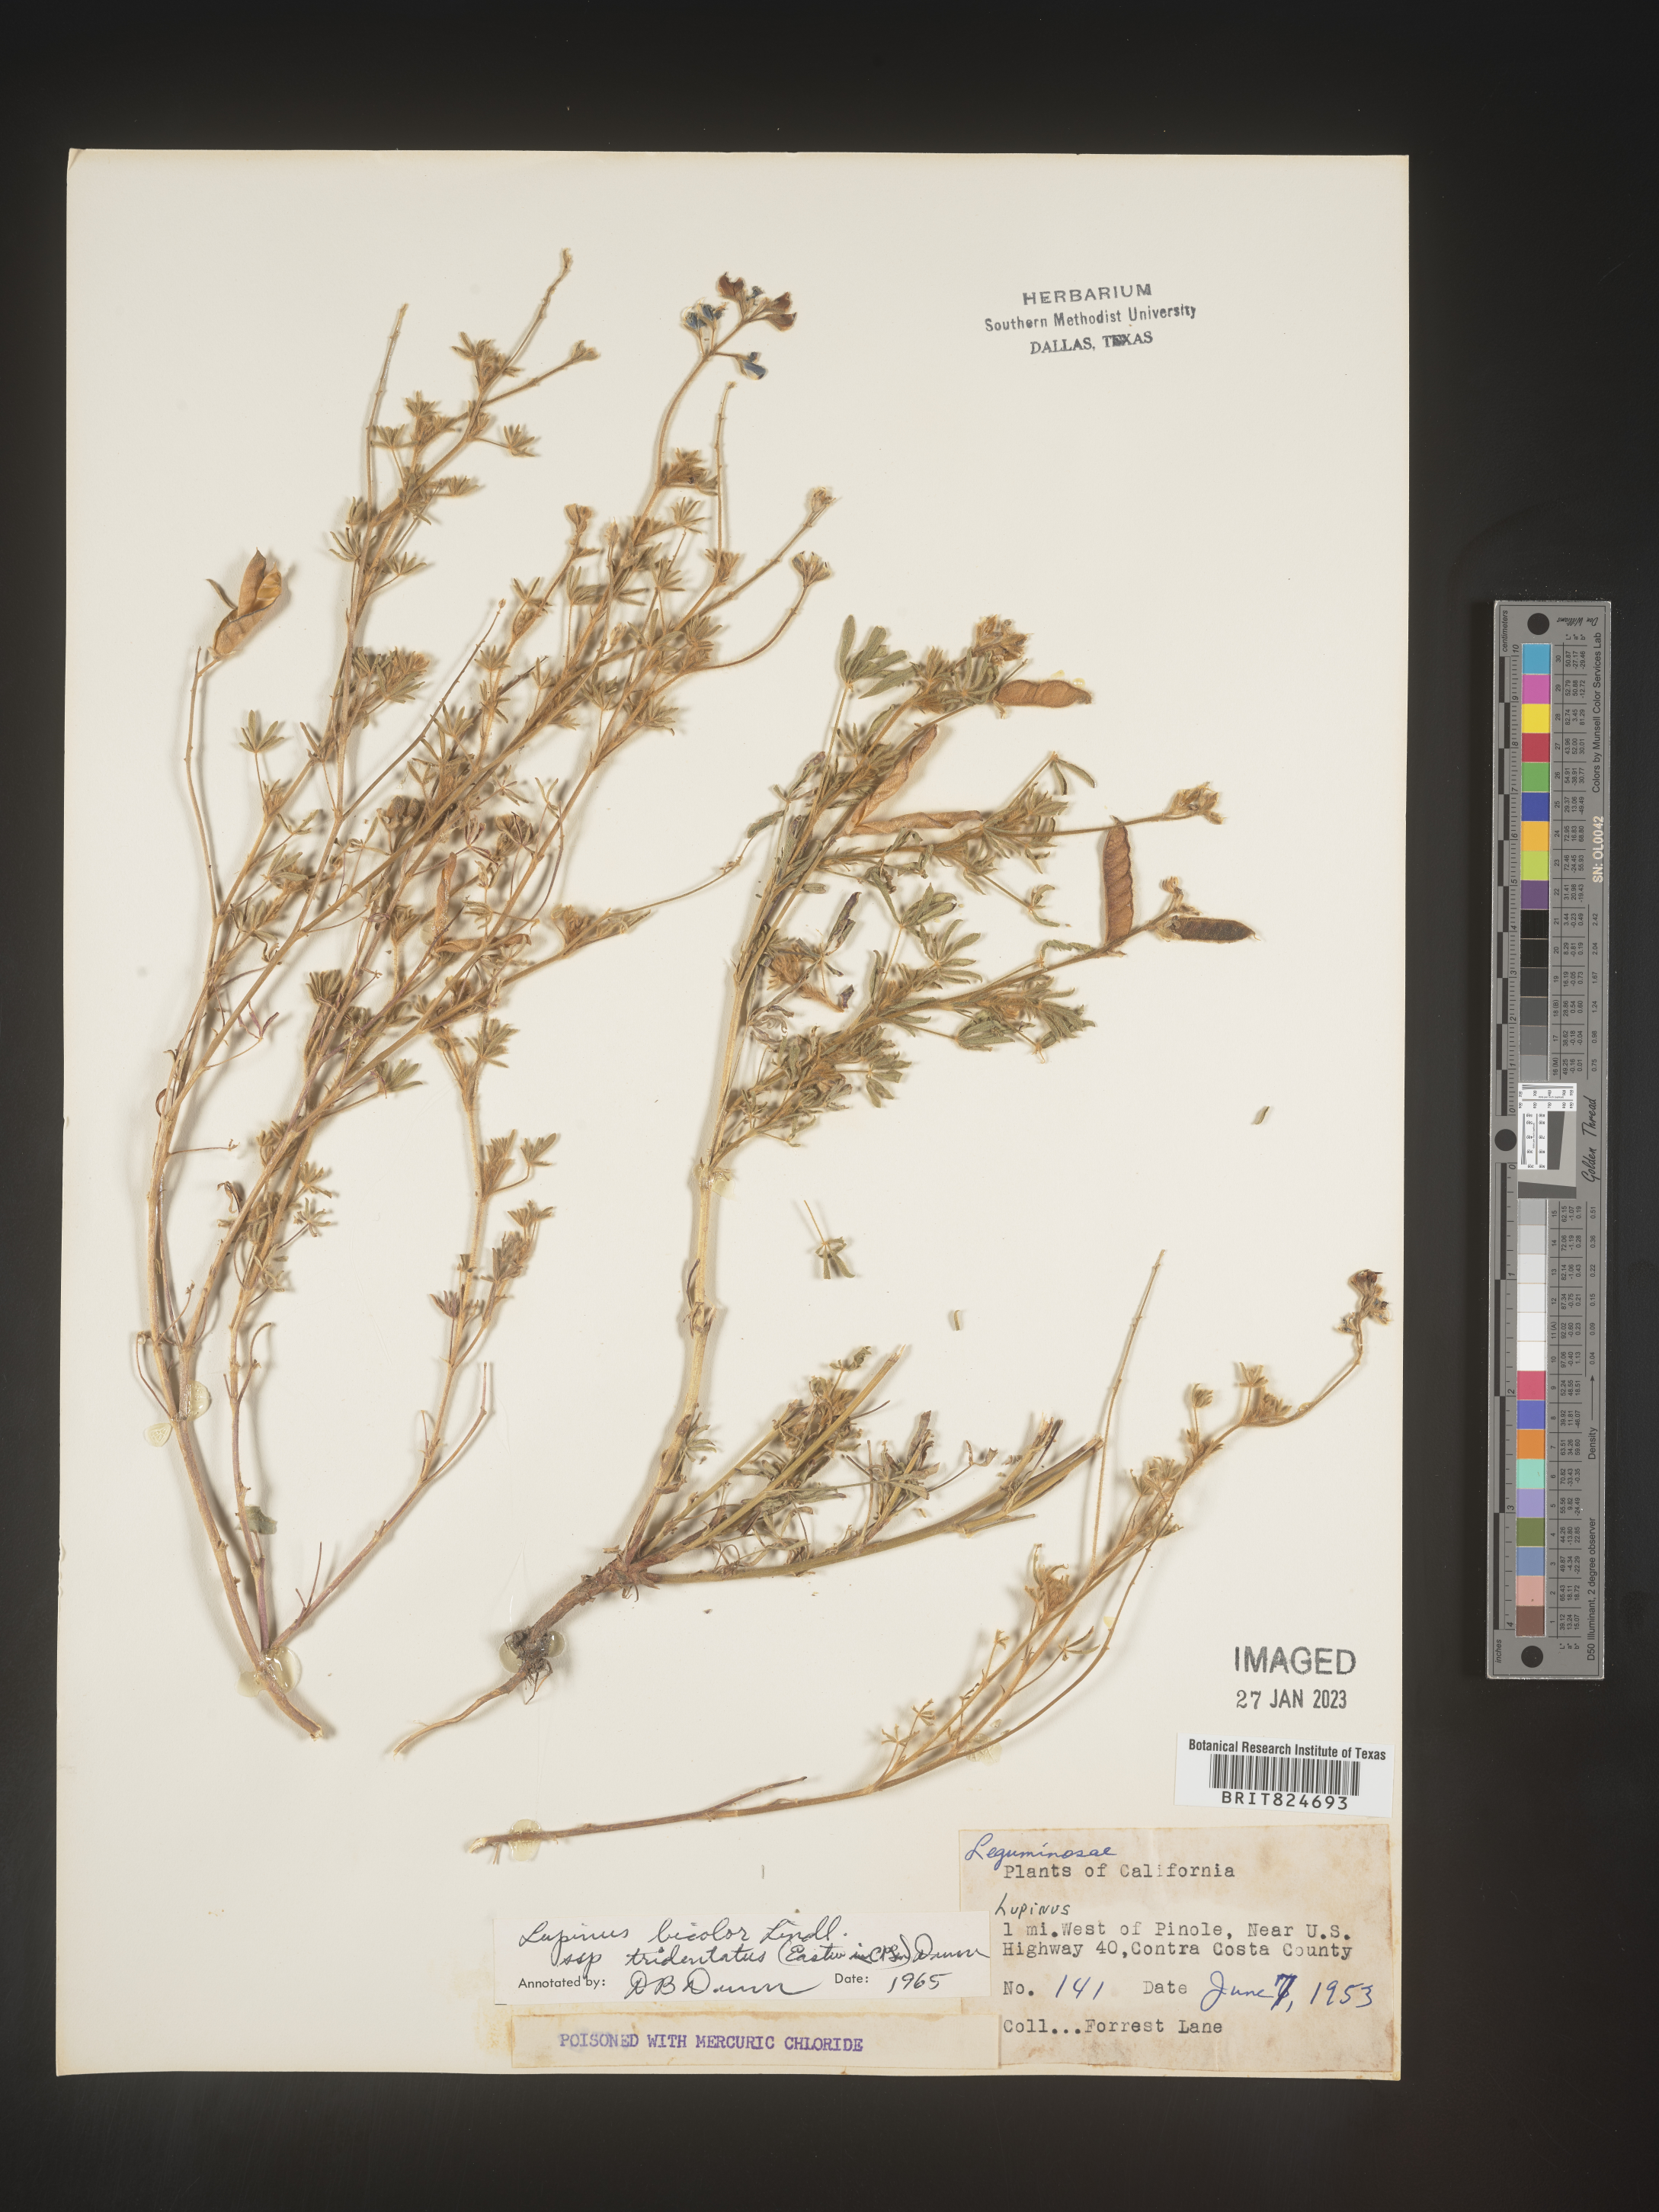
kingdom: Plantae
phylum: Tracheophyta
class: Magnoliopsida
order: Fabales
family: Fabaceae
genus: Lupinus
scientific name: Lupinus bicolor
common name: Miniature lupine
